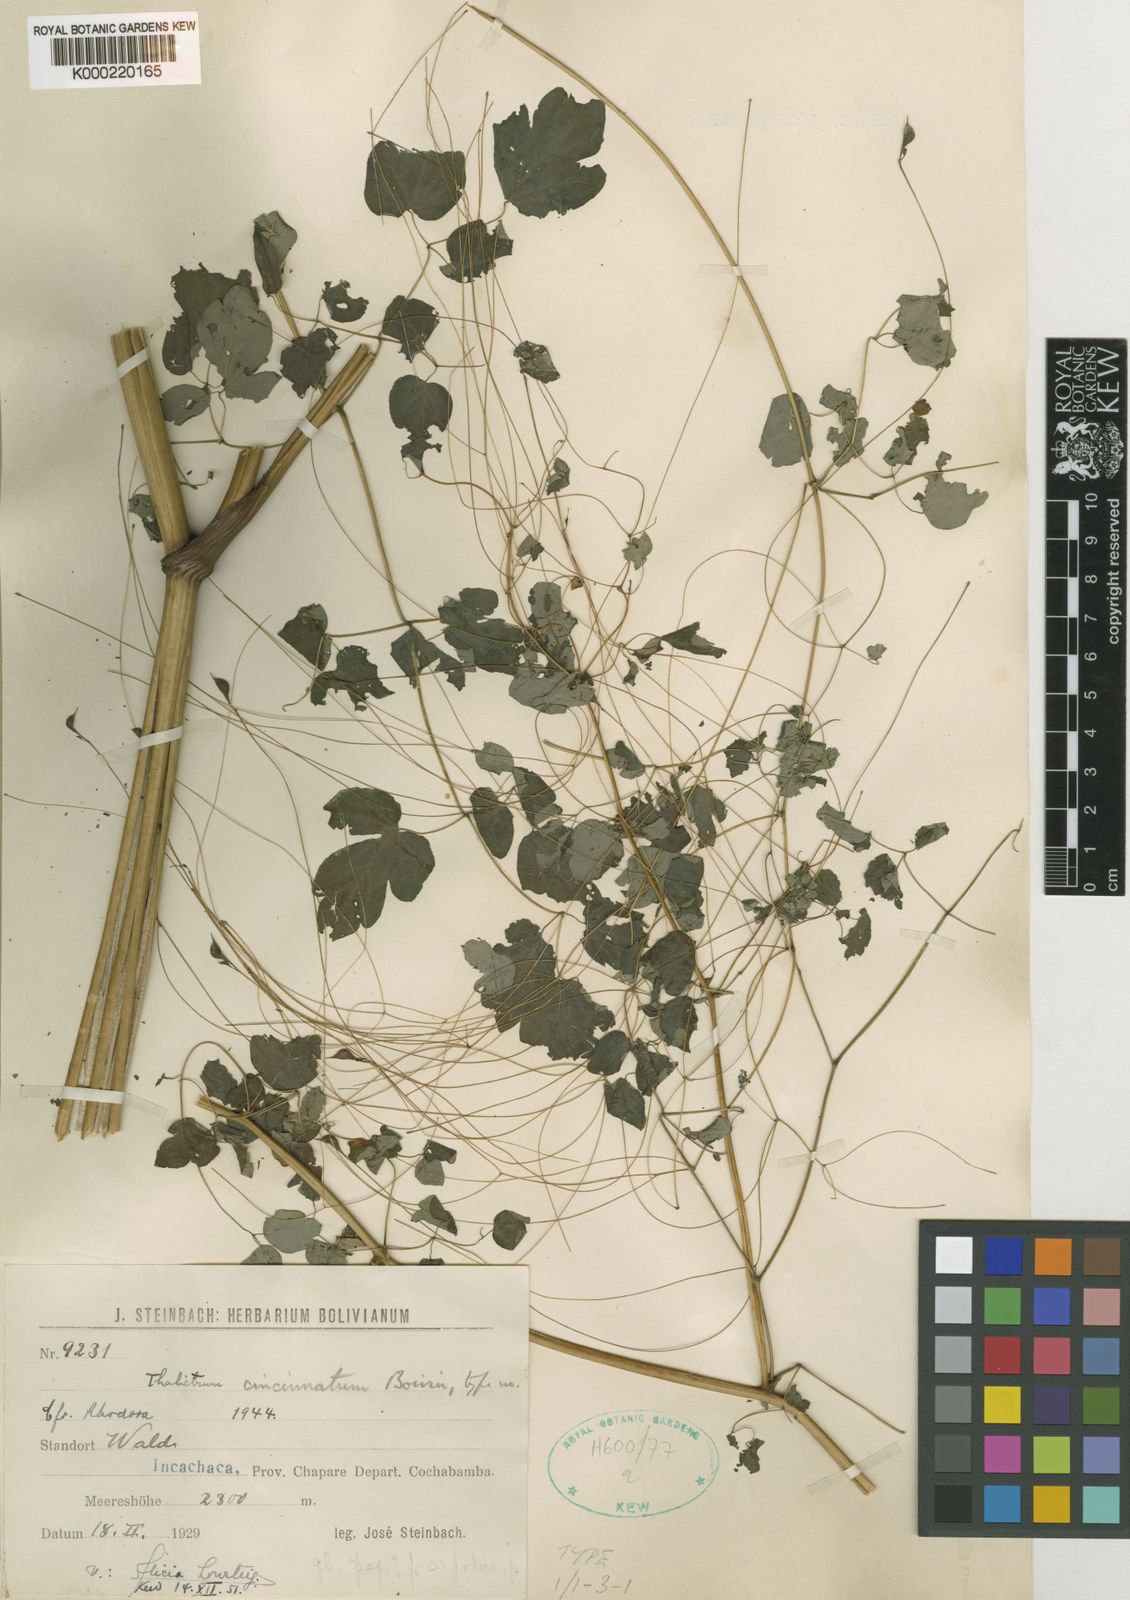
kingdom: Plantae
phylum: Tracheophyta
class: Magnoliopsida
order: Ranunculales
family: Ranunculaceae
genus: Thalictrum
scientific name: Thalictrum cincinnatum
